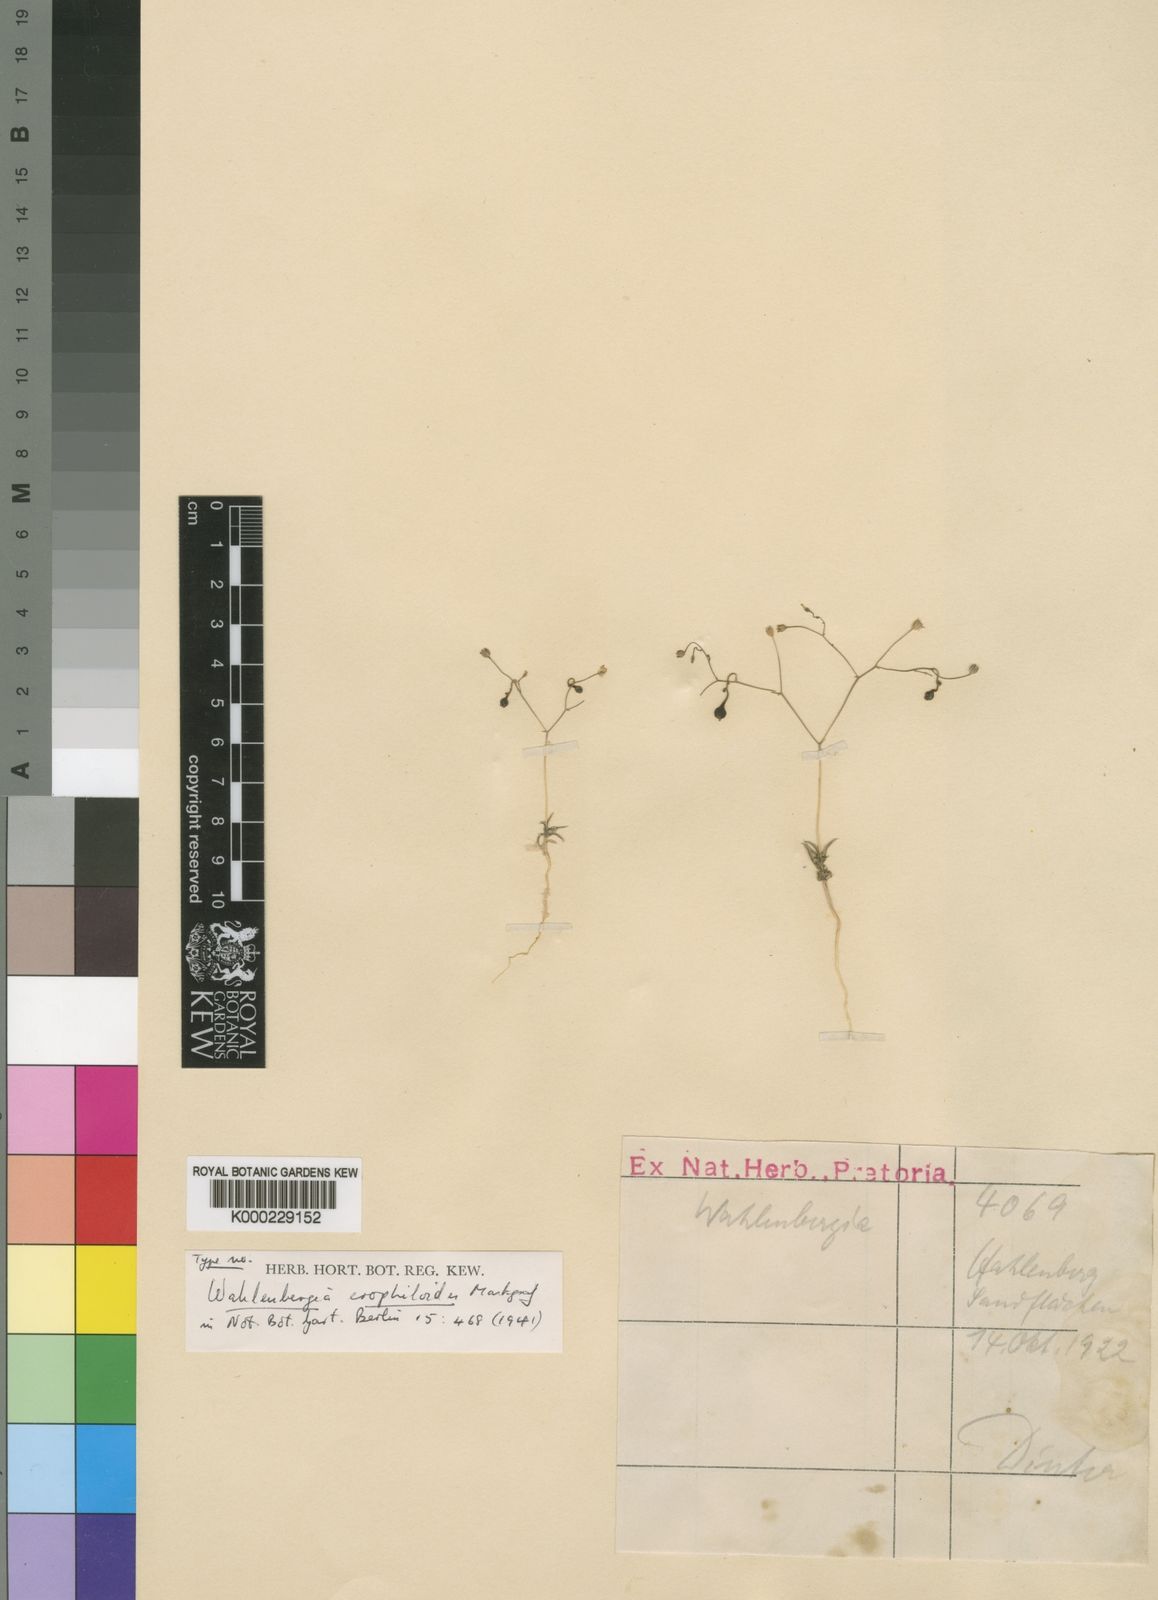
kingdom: Plantae
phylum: Tracheophyta
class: Magnoliopsida
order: Asterales
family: Campanulaceae
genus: Wahlenbergia
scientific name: Wahlenbergia erophiloides
